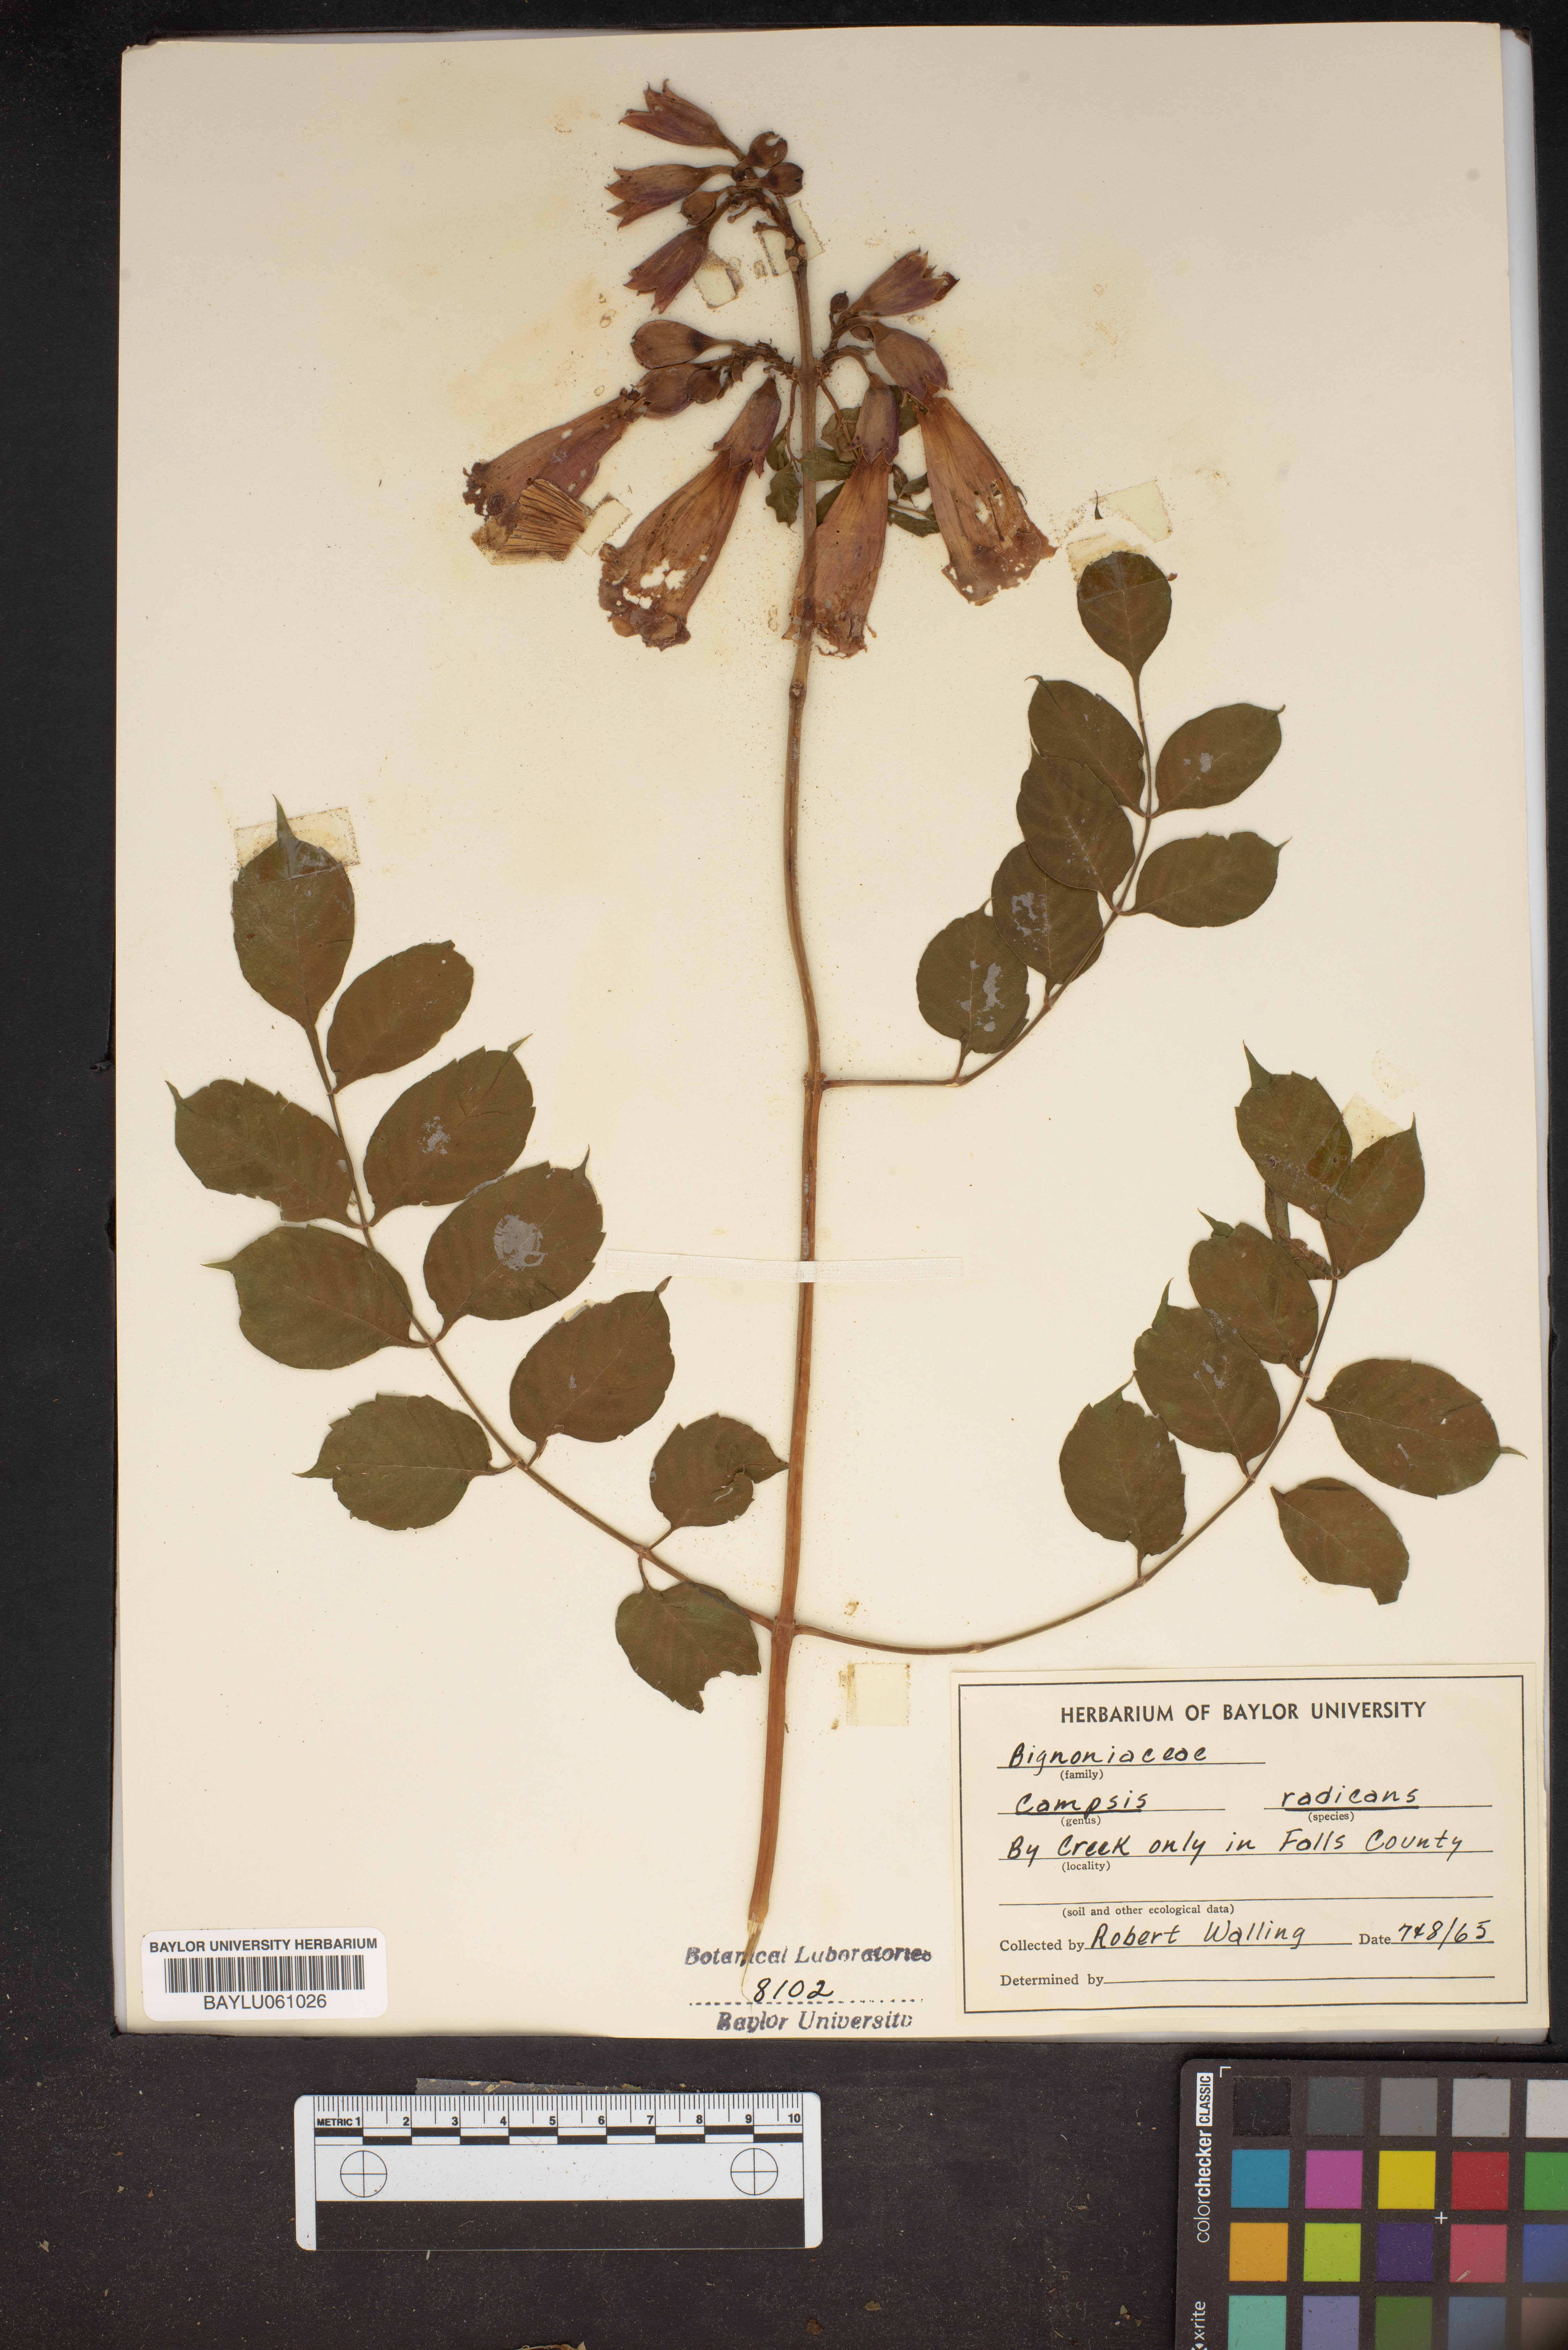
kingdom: Plantae
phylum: Tracheophyta
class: Magnoliopsida
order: Lamiales
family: Bignoniaceae
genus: Campsis
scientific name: Campsis radicans
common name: Trumpet-creeper
